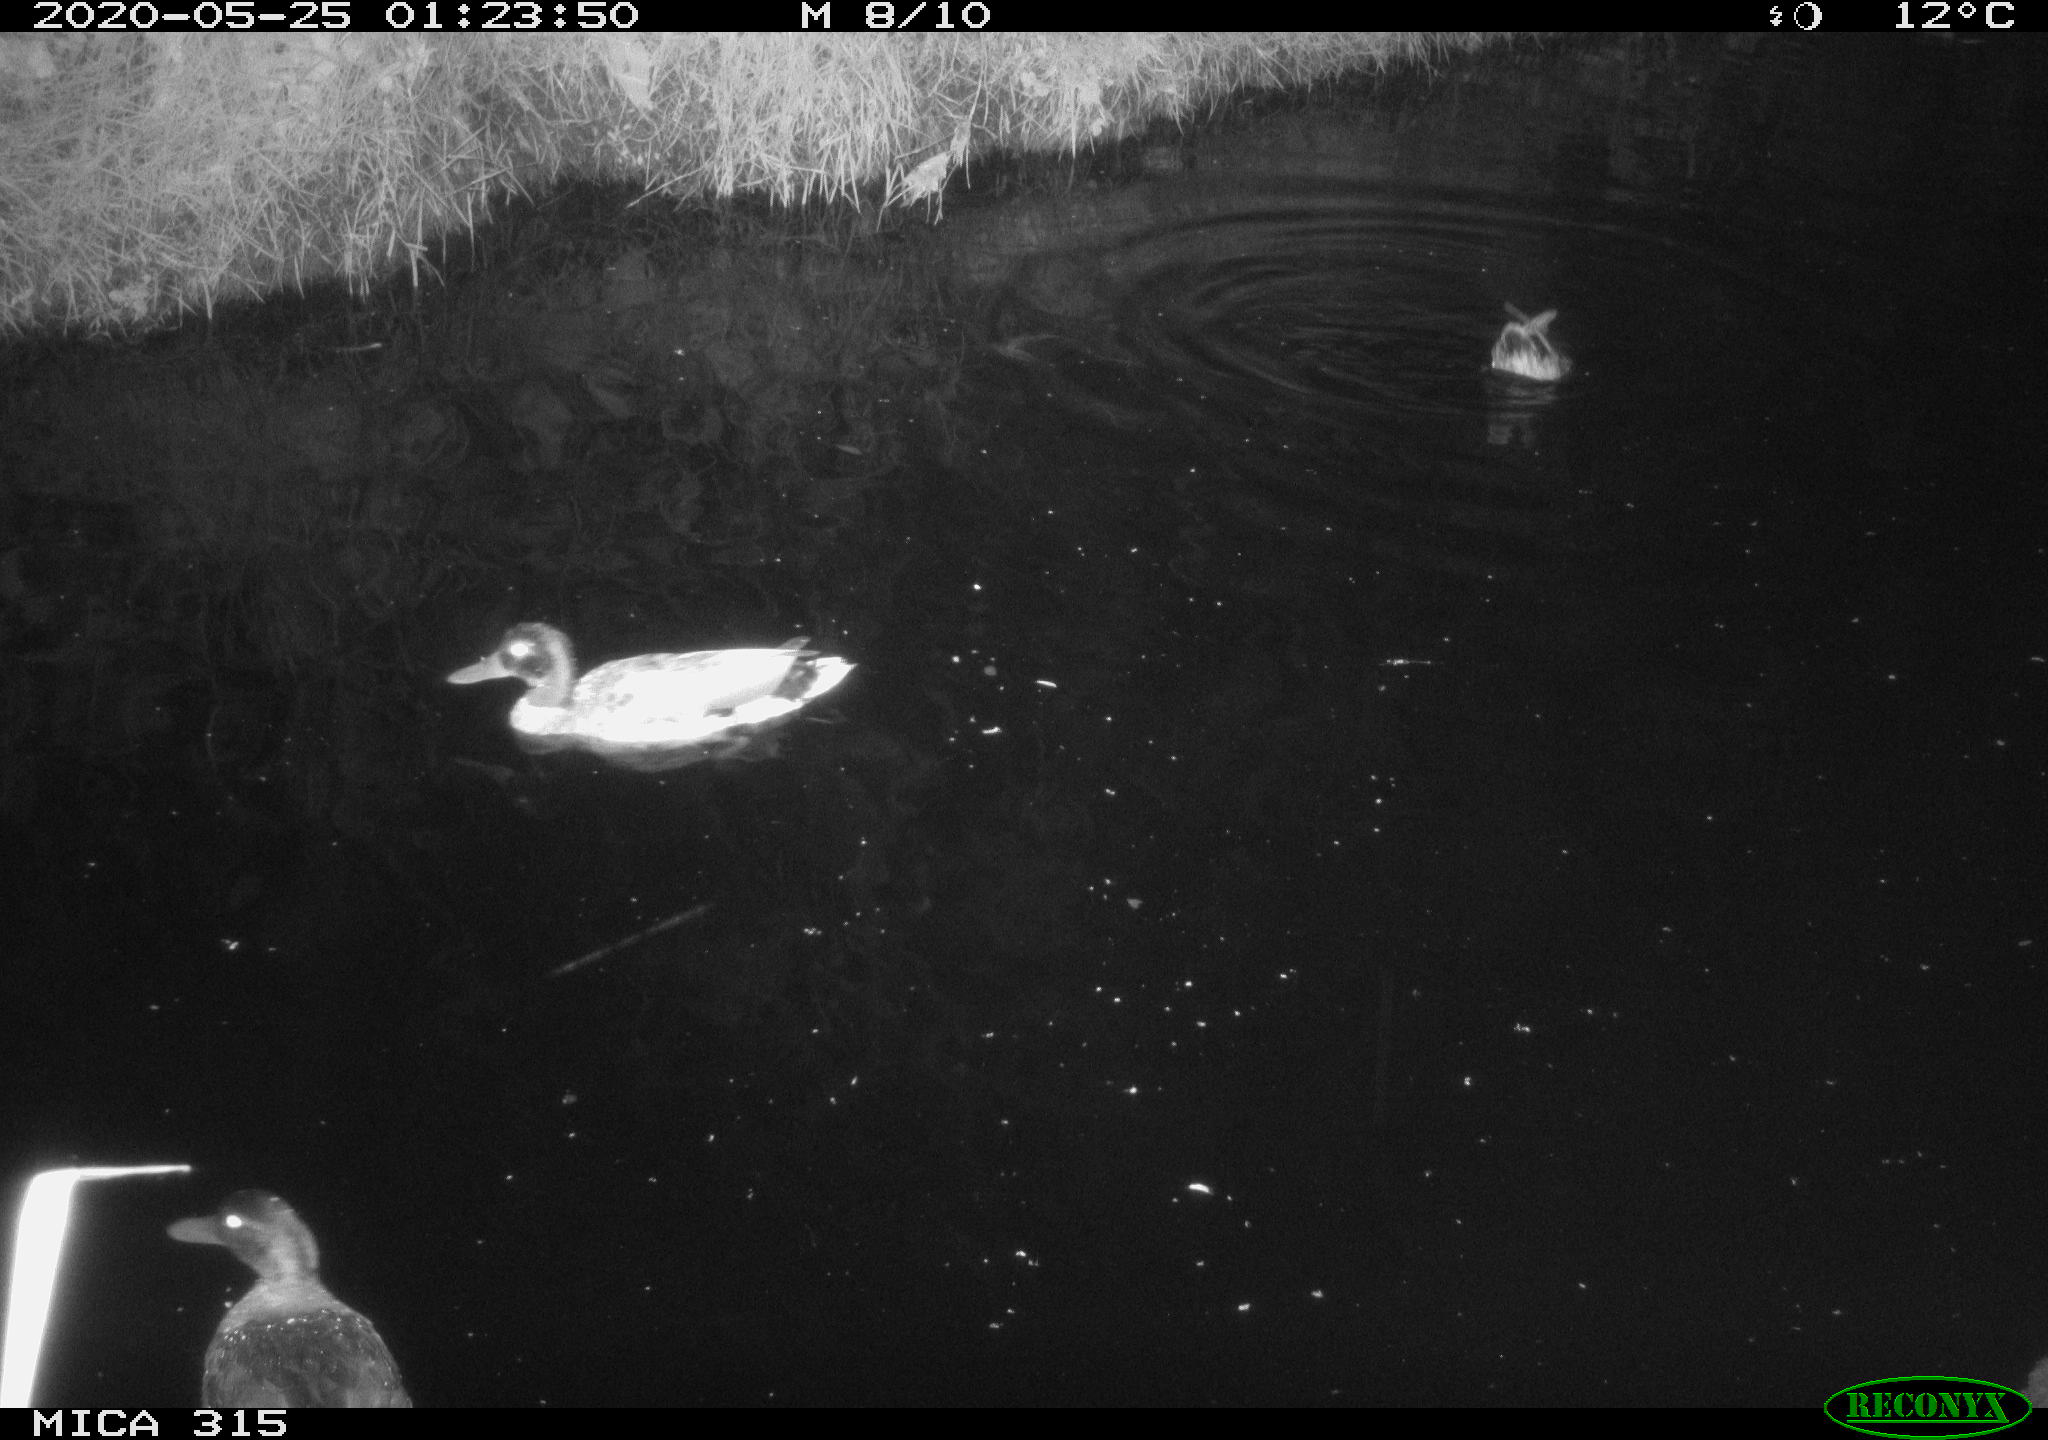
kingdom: Animalia
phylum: Chordata
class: Aves
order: Anseriformes
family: Anatidae
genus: Anas
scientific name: Anas platyrhynchos
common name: Mallard
